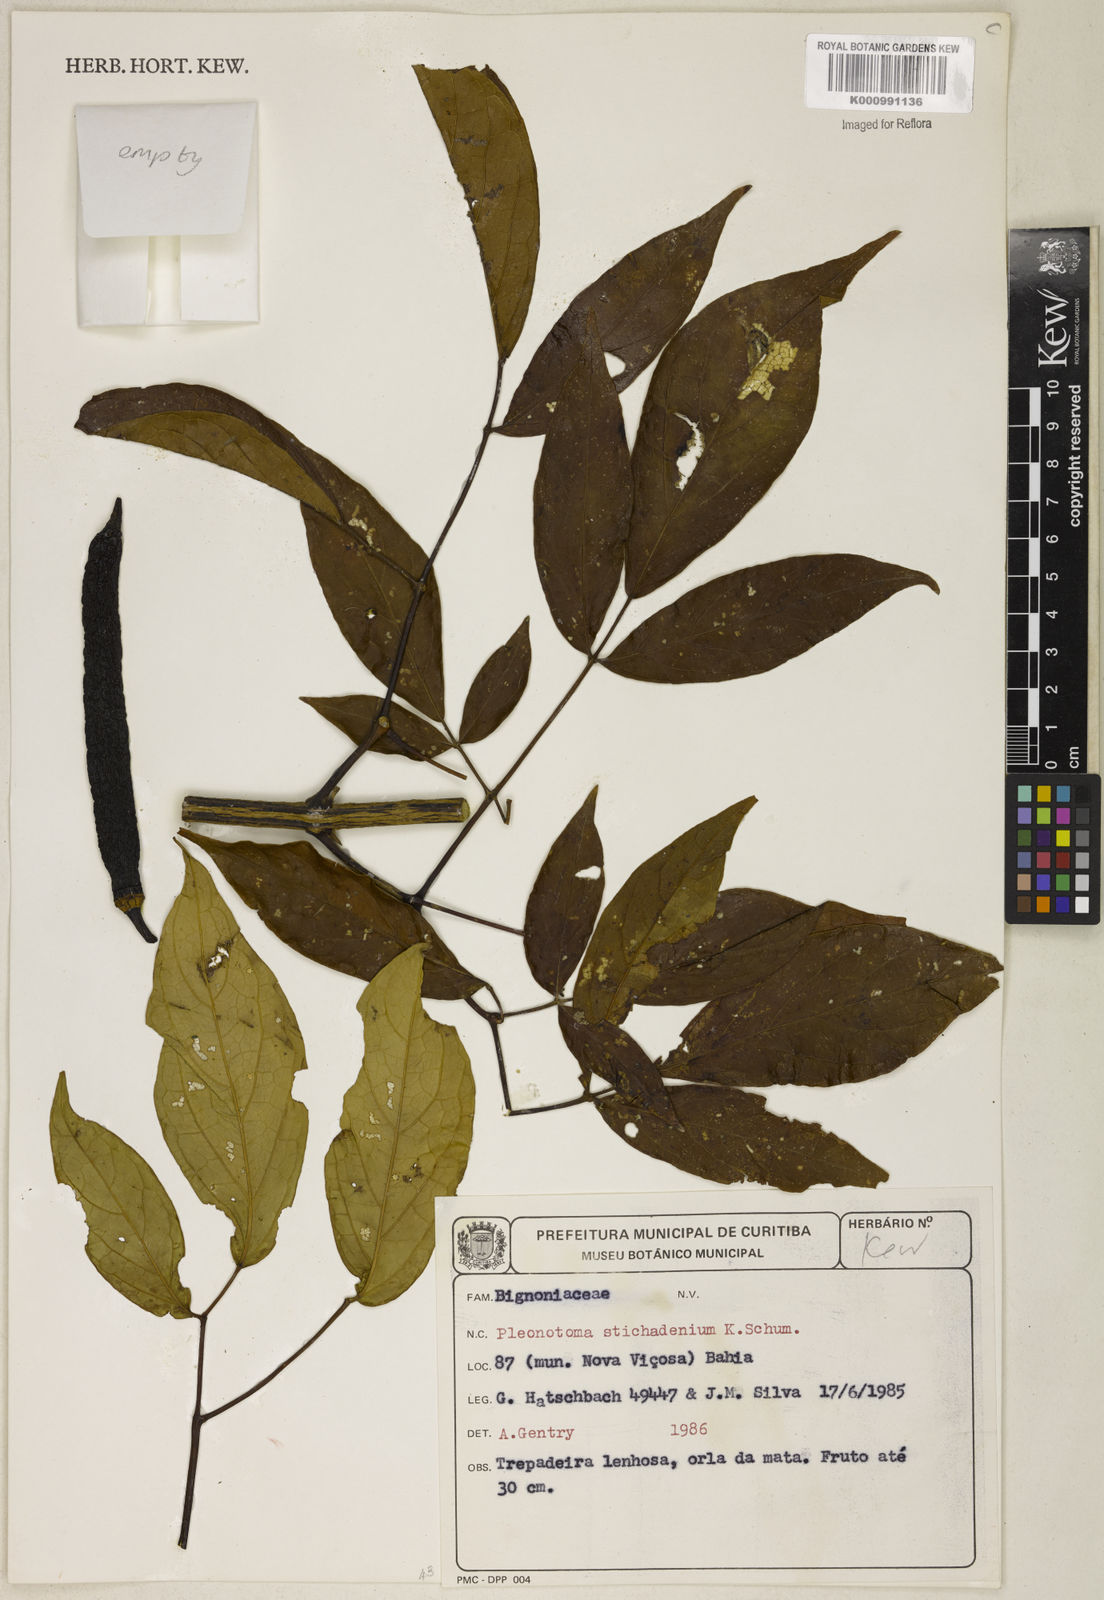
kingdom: Plantae
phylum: Tracheophyta
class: Magnoliopsida
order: Lamiales
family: Bignoniaceae
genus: Pleonotoma
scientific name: Pleonotoma stichadenia
